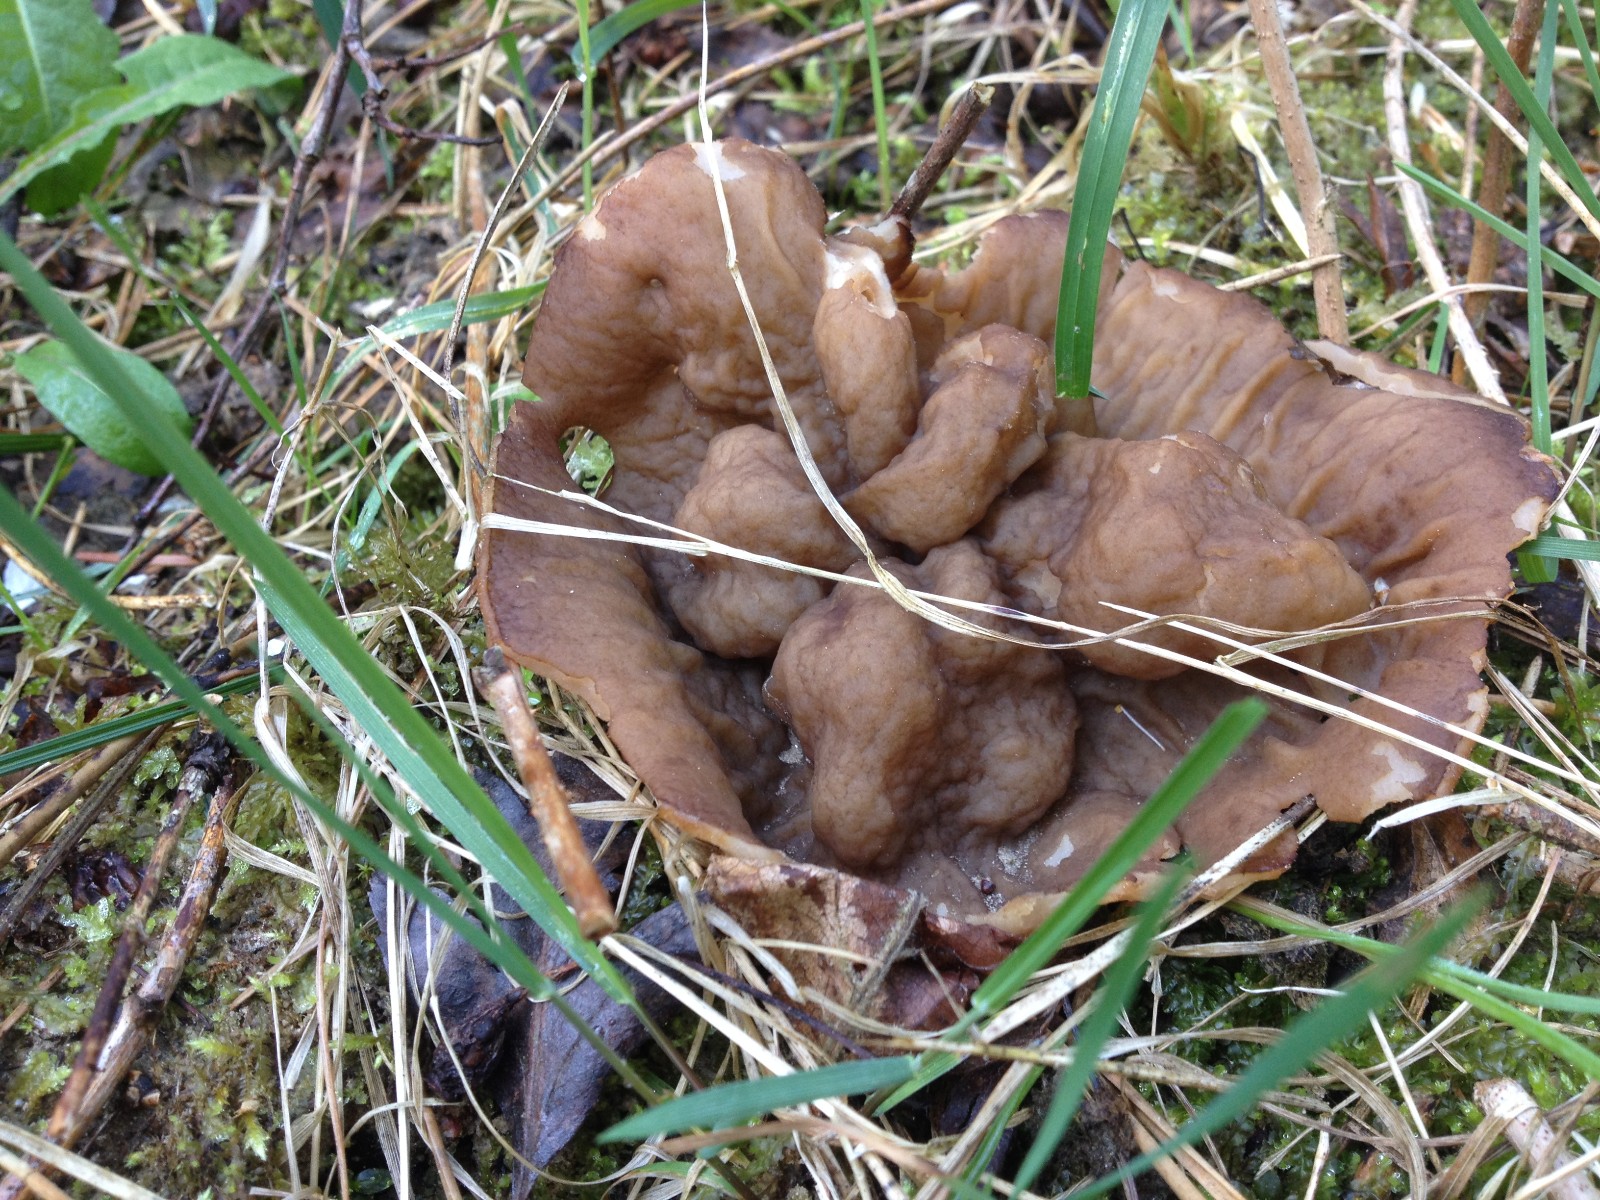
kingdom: Fungi
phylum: Ascomycota
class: Pezizomycetes
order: Pezizales
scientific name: Pezizales
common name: bægersvampordenen
